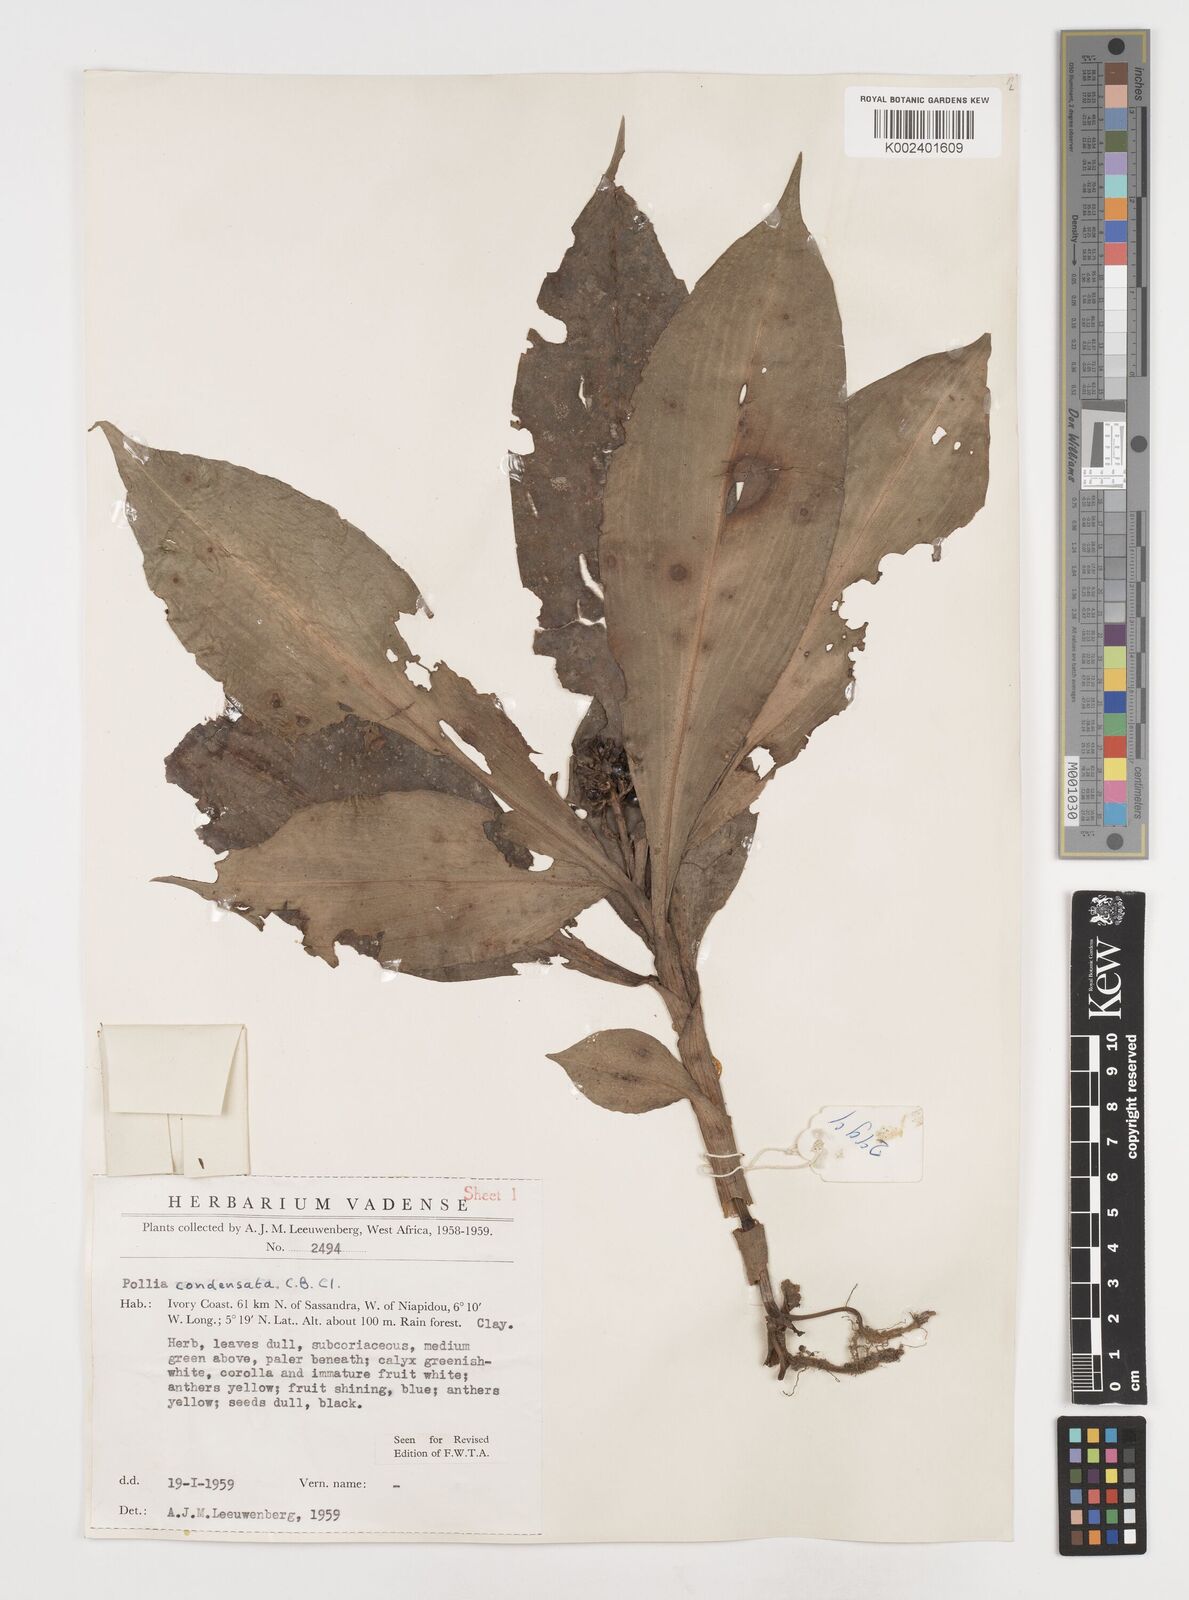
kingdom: Plantae
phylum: Tracheophyta
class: Liliopsida
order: Commelinales
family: Commelinaceae
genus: Pollia
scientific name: Pollia condensata
